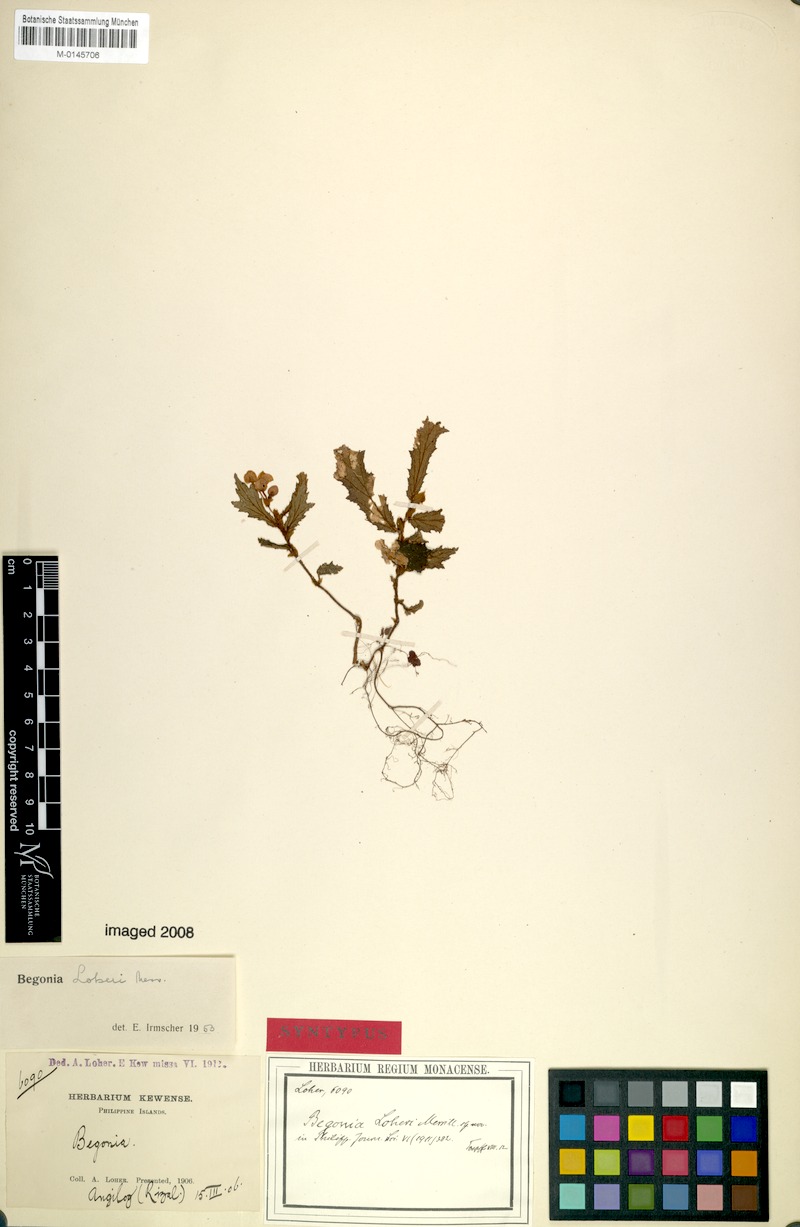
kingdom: Plantae
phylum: Tracheophyta
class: Magnoliopsida
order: Cucurbitales
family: Begoniaceae
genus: Begonia
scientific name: Begonia loheri
